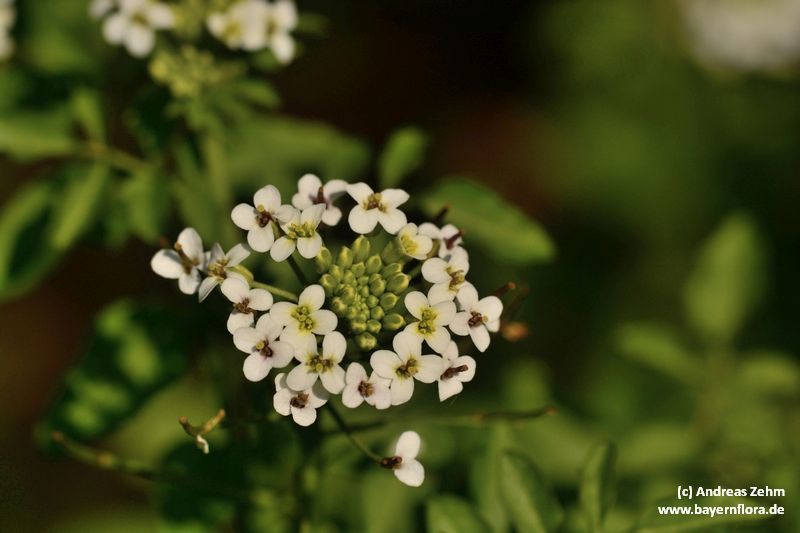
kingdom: Plantae
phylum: Tracheophyta
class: Magnoliopsida
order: Brassicales
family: Brassicaceae
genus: Nasturtium
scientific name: Nasturtium officinale
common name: Watercress
